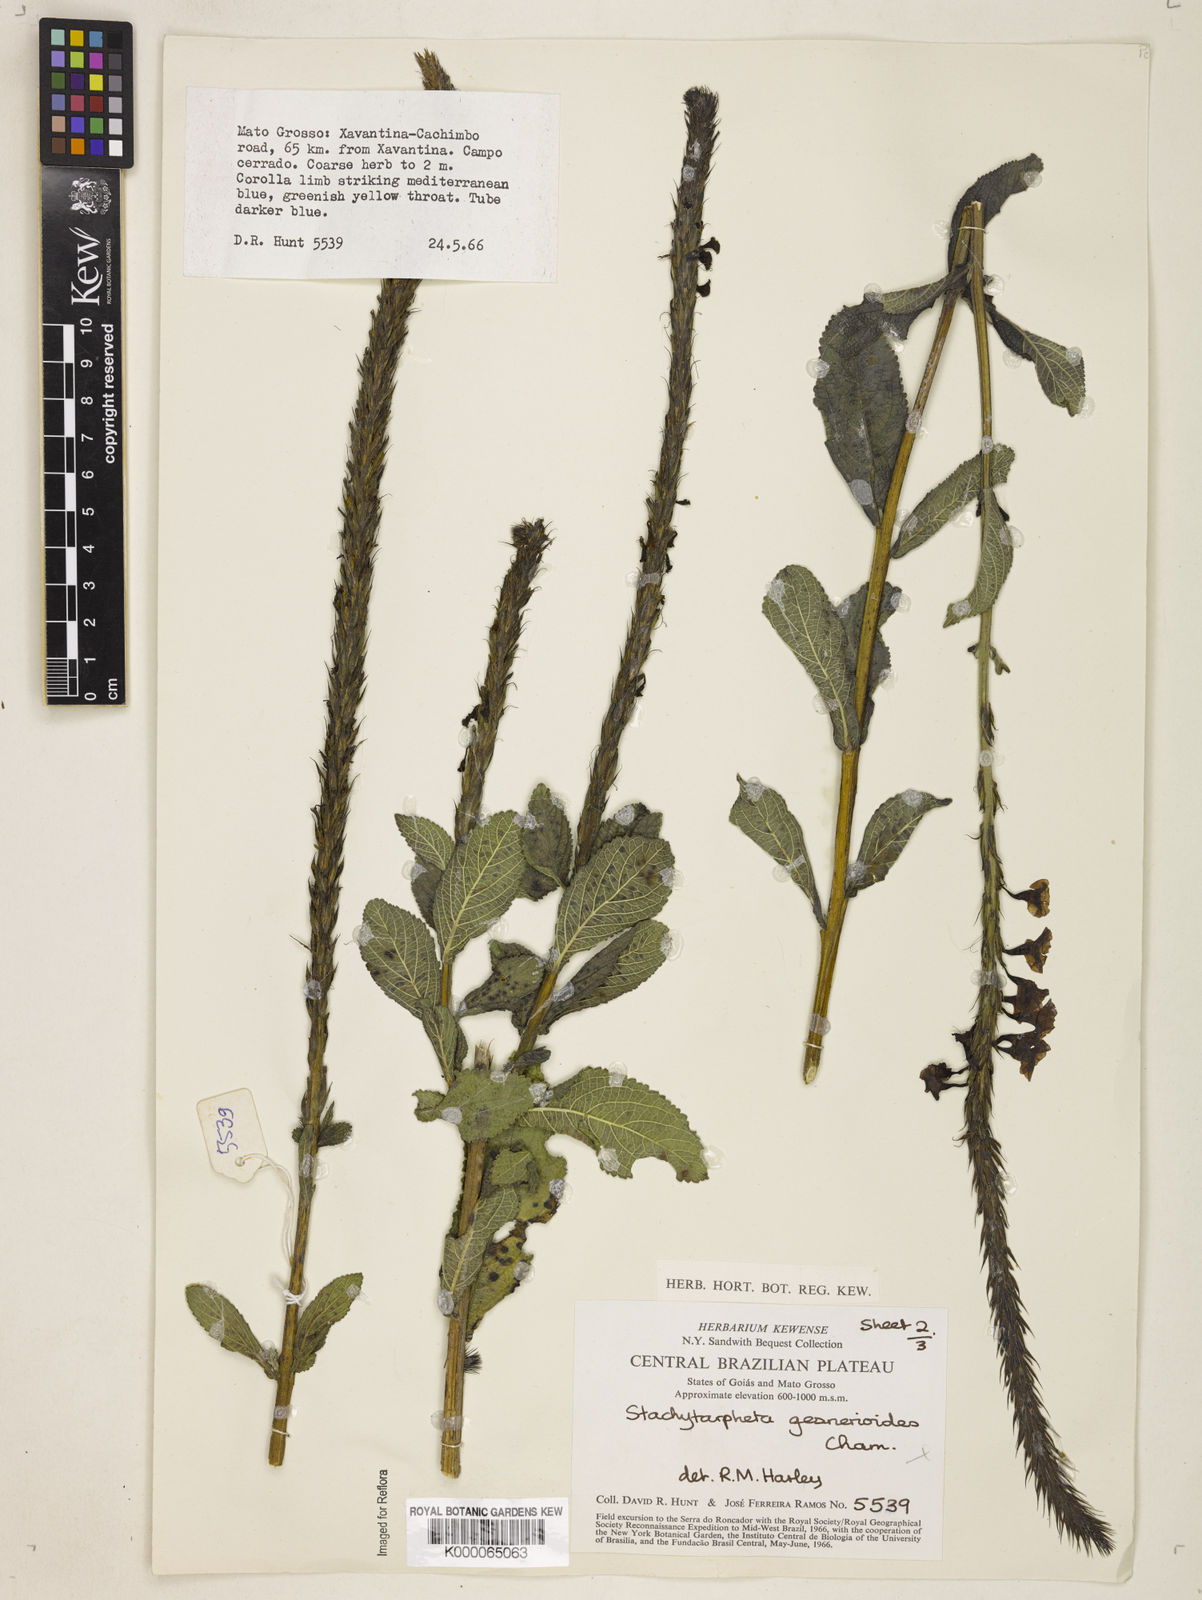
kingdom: Plantae
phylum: Tracheophyta
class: Magnoliopsida
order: Lamiales
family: Verbenaceae
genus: Stachytarpheta
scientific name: Stachytarpheta gesnerioides
